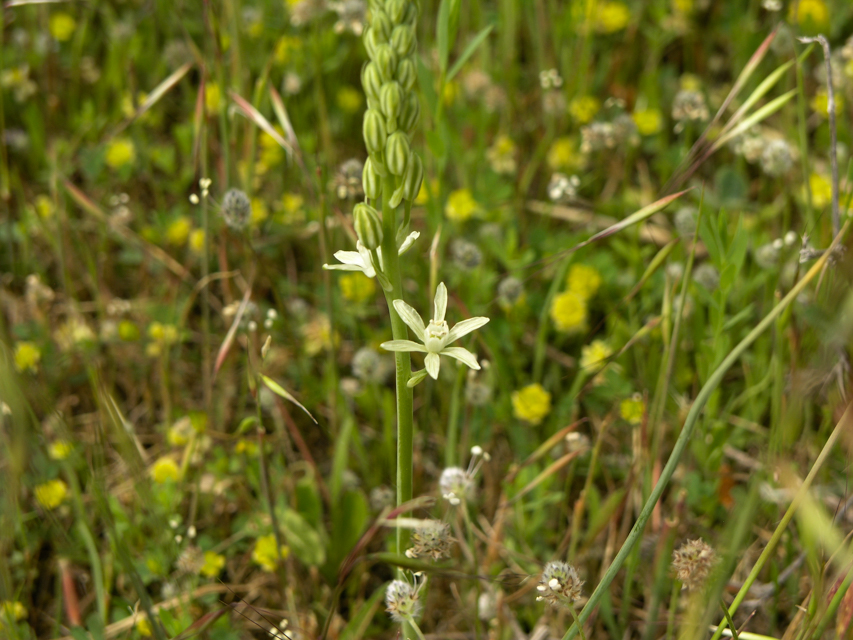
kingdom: Plantae
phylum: Tracheophyta
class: Liliopsida
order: Asparagales
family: Asparagaceae
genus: Ornithogalum
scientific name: Ornithogalum comosum
